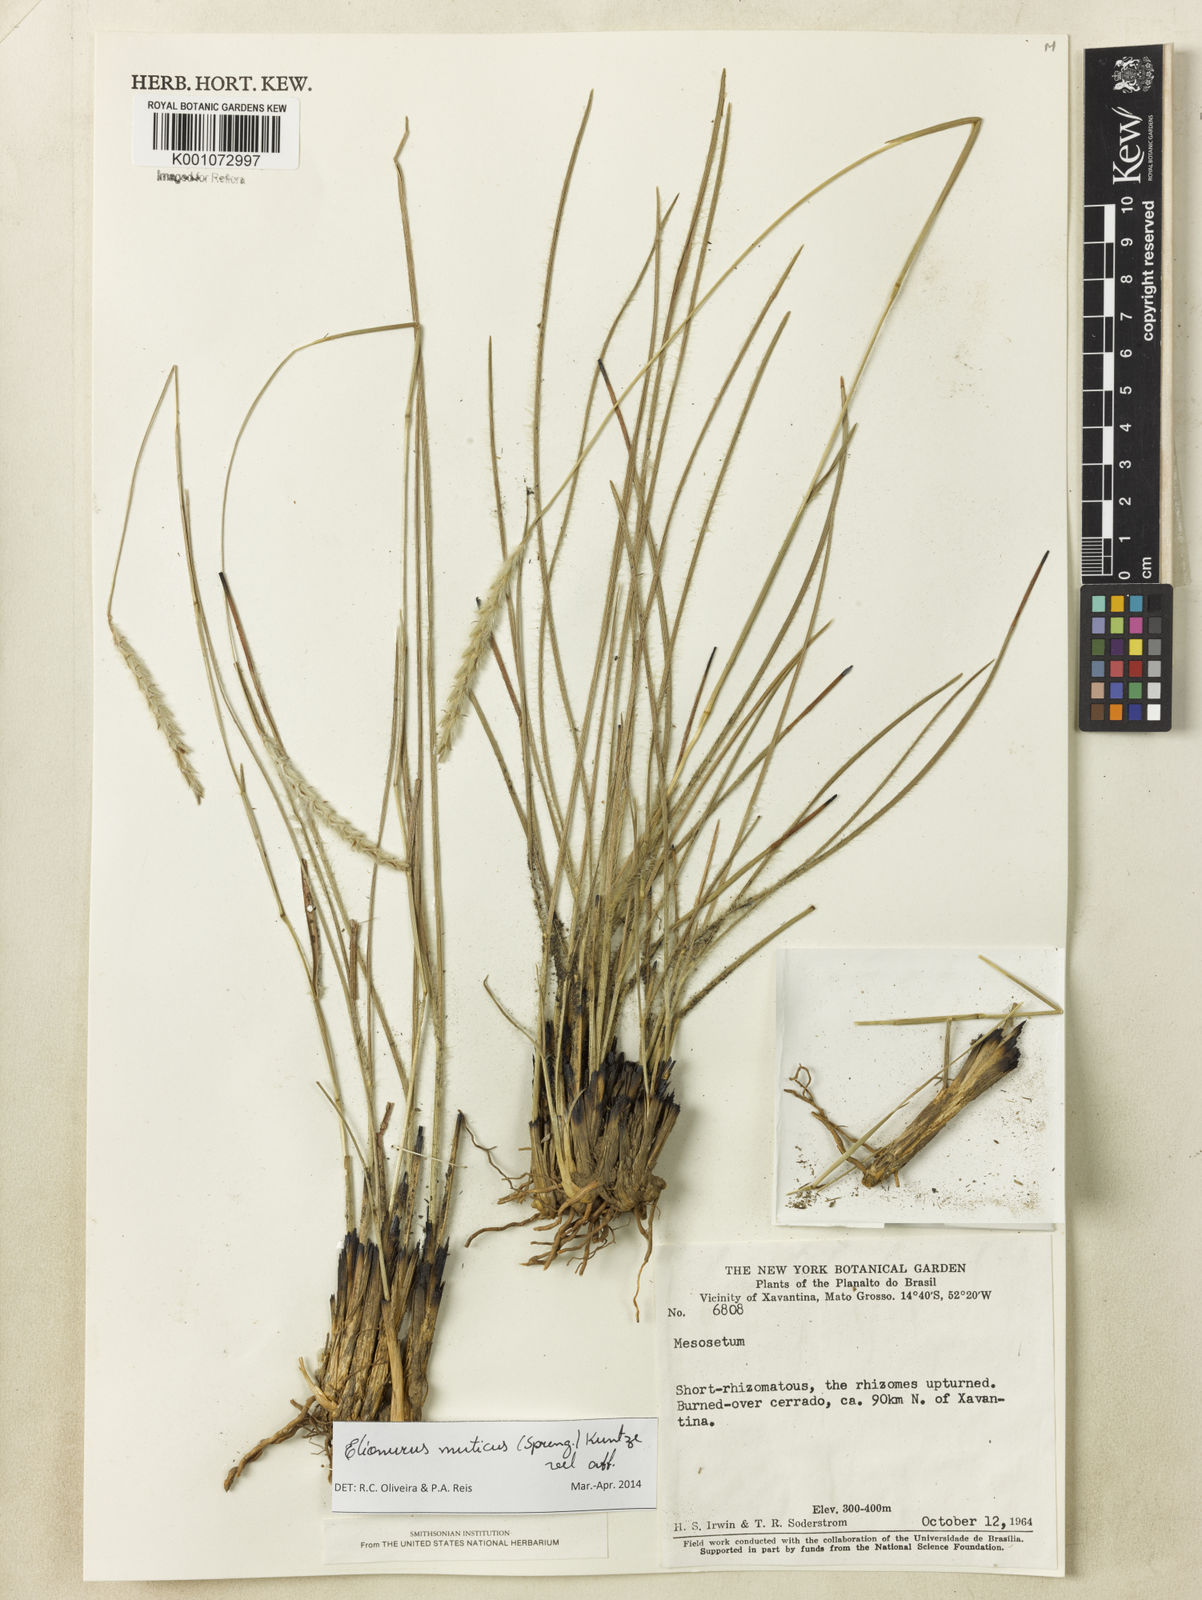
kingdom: Plantae
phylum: Tracheophyta
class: Liliopsida
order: Poales
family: Poaceae
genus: Elionurus
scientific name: Elionurus muticus
